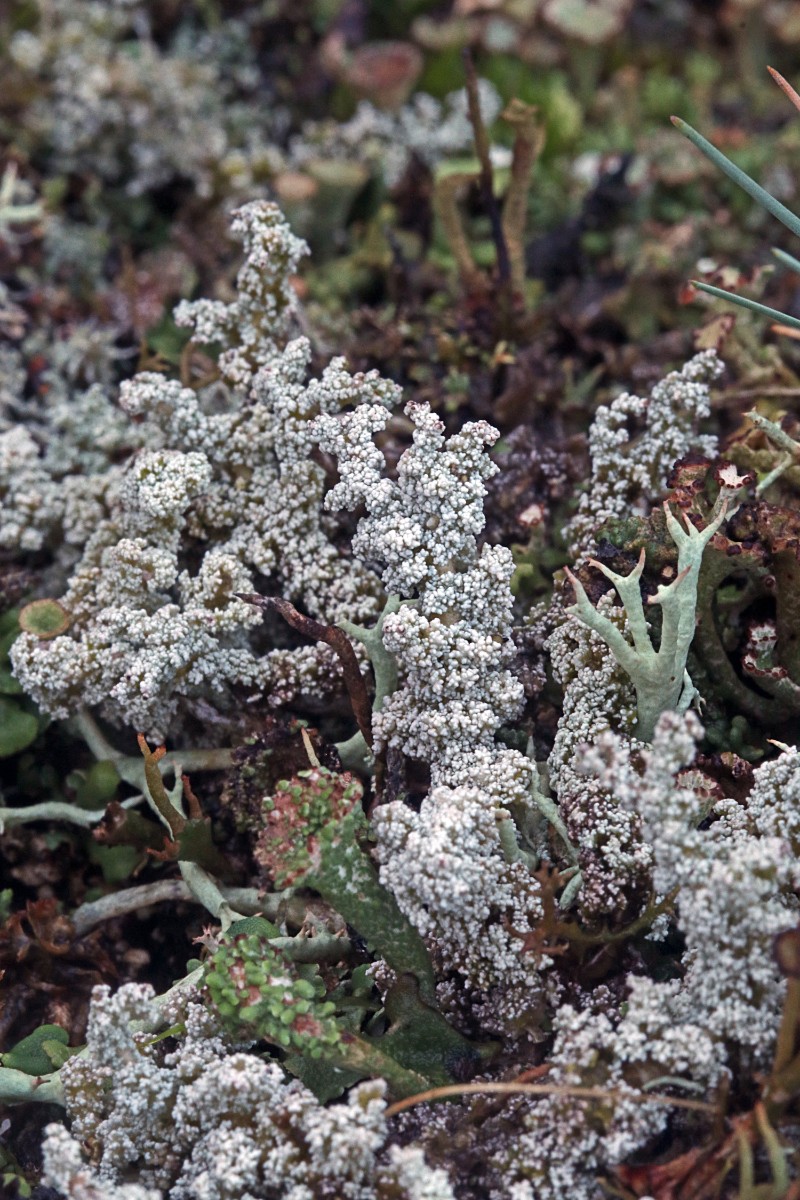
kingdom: Fungi
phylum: Ascomycota
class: Lecanoromycetes
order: Lecanorales
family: Stereocaulaceae
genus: Stereocaulon
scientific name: Stereocaulon saxatile
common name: klit-korallav
